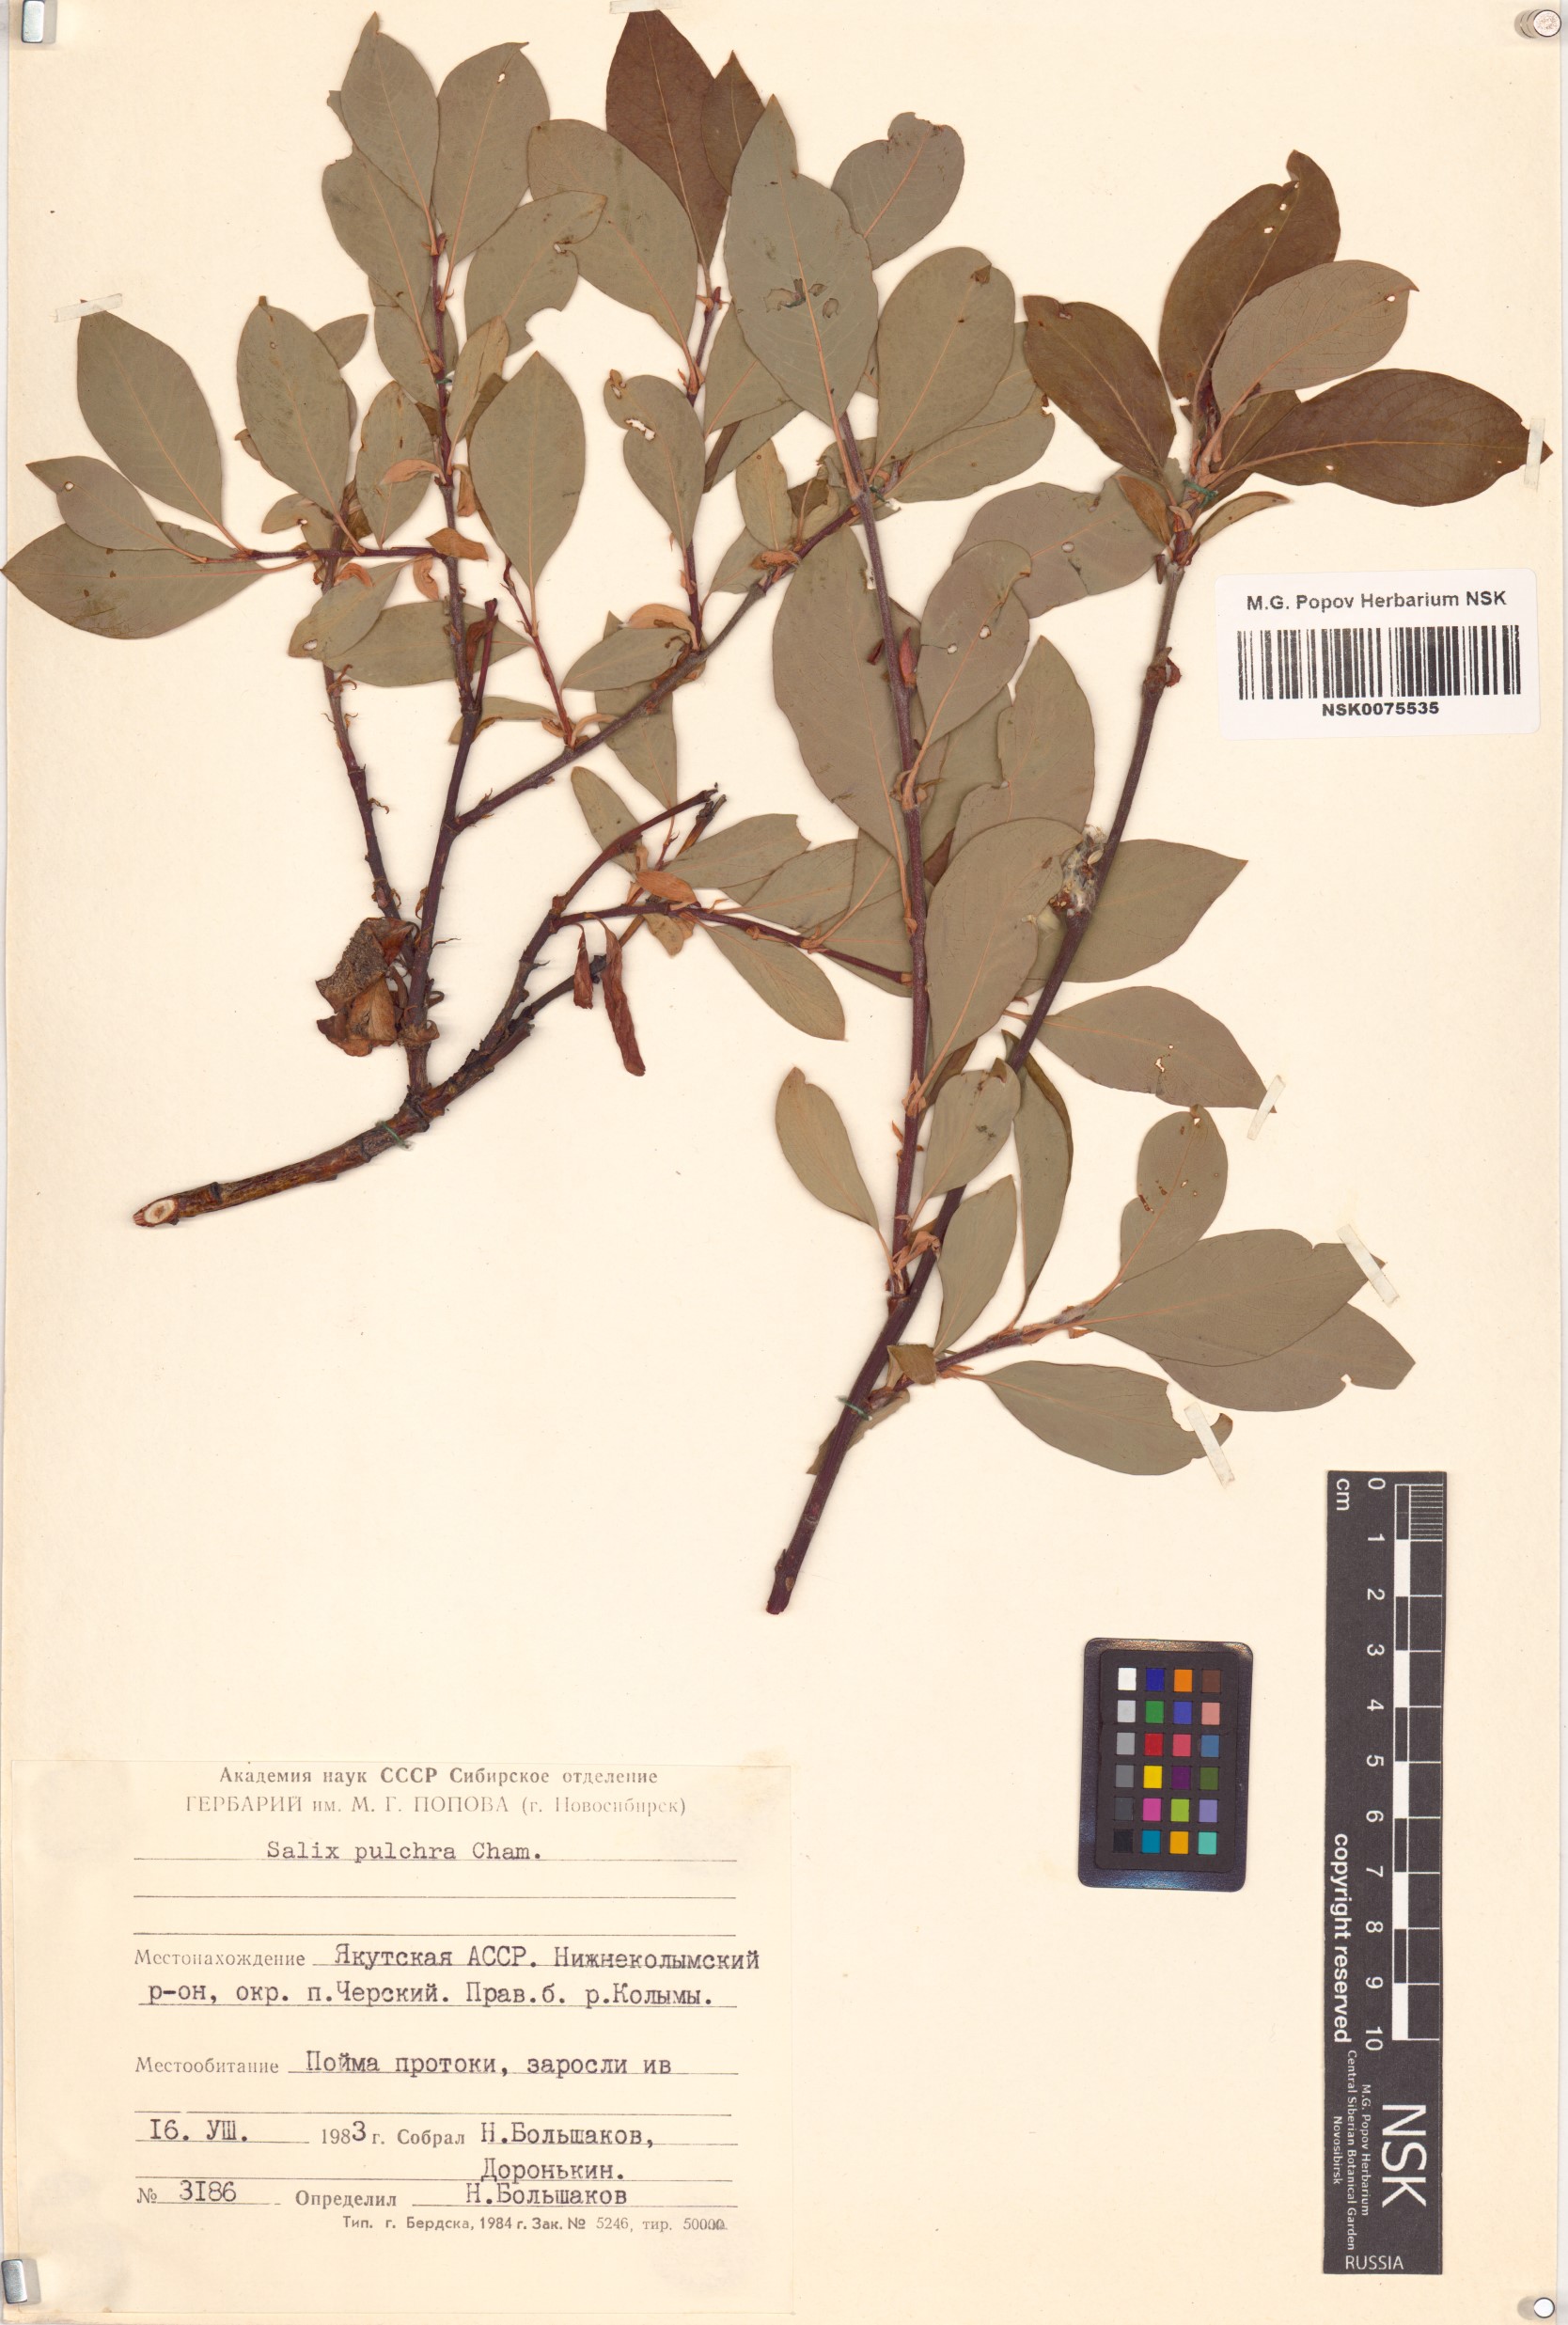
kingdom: Plantae
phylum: Tracheophyta
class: Magnoliopsida
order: Malpighiales
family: Salicaceae
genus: Salix
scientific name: Salix pulchra
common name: Diamond-leaved willow
